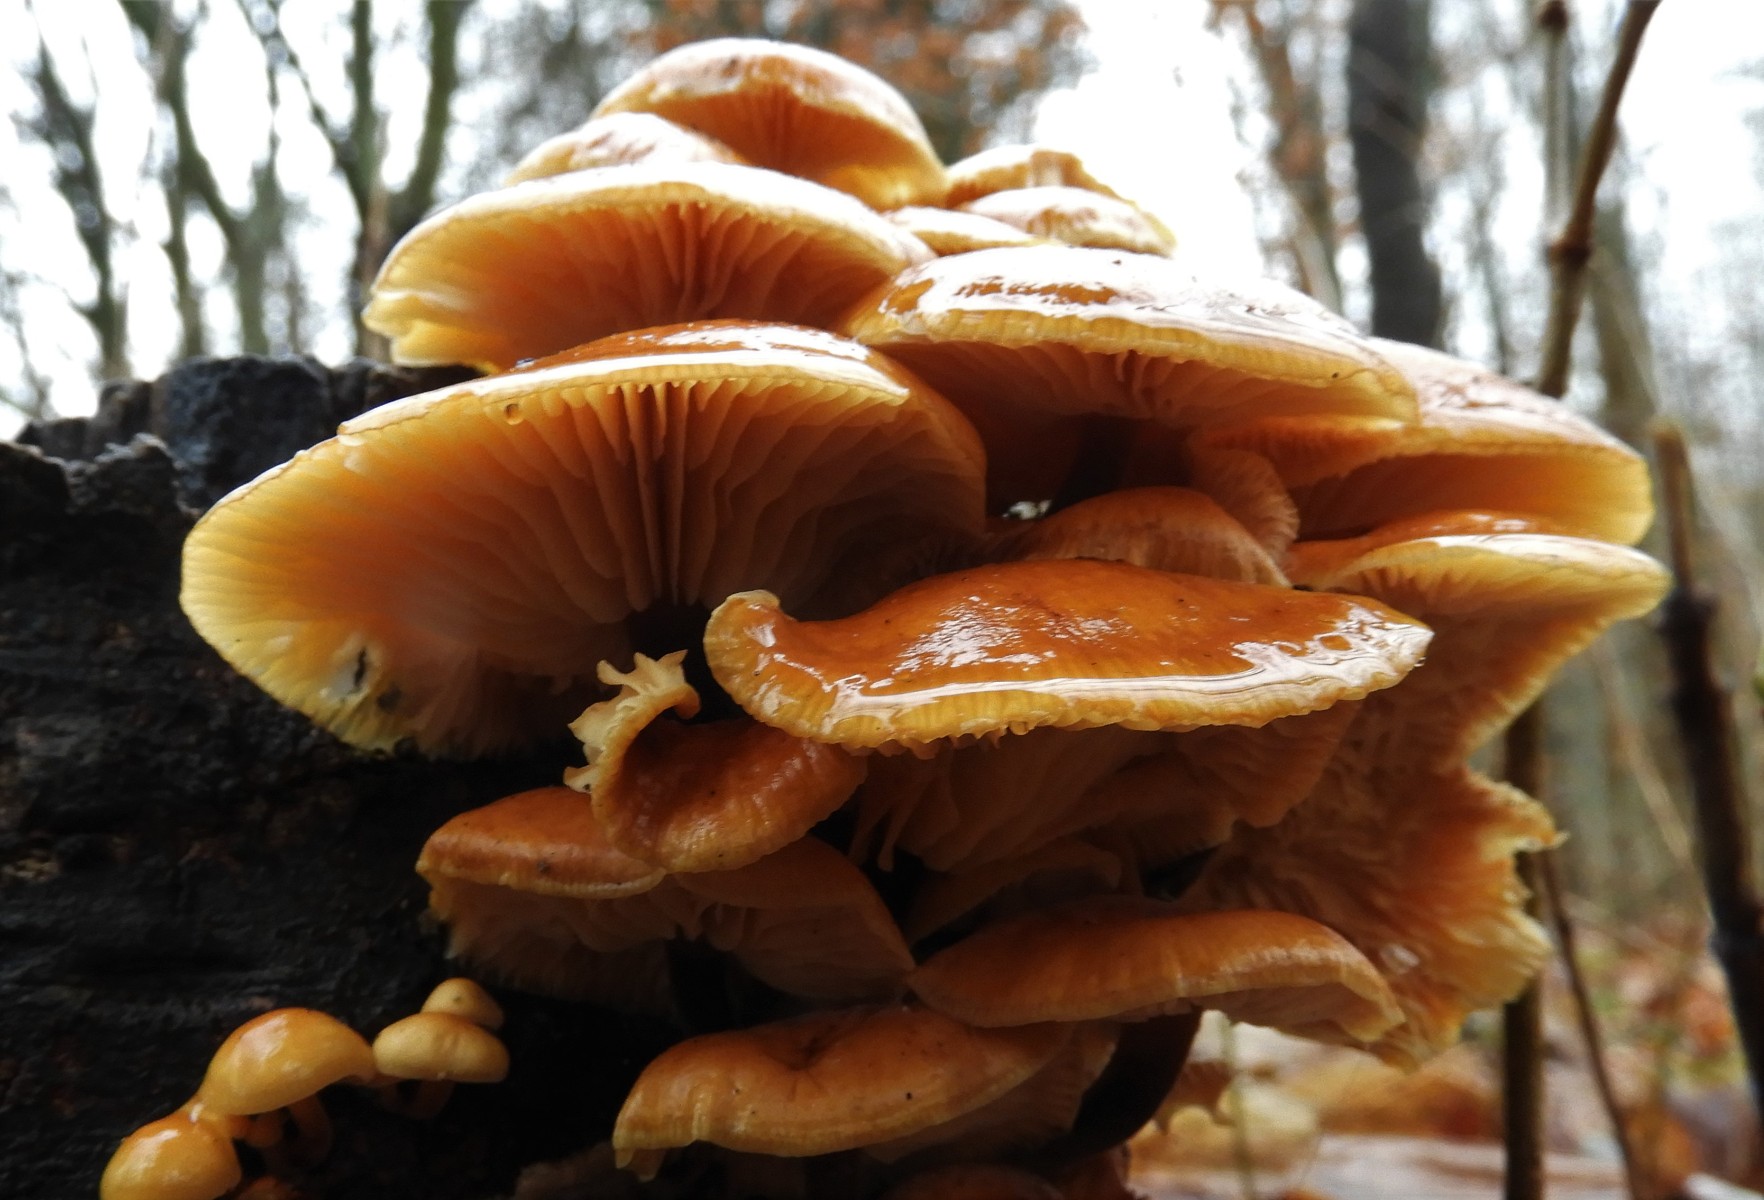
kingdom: Fungi
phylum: Basidiomycota
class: Agaricomycetes
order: Agaricales
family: Physalacriaceae
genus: Flammulina
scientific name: Flammulina velutipes
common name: gul fløjlsfod
